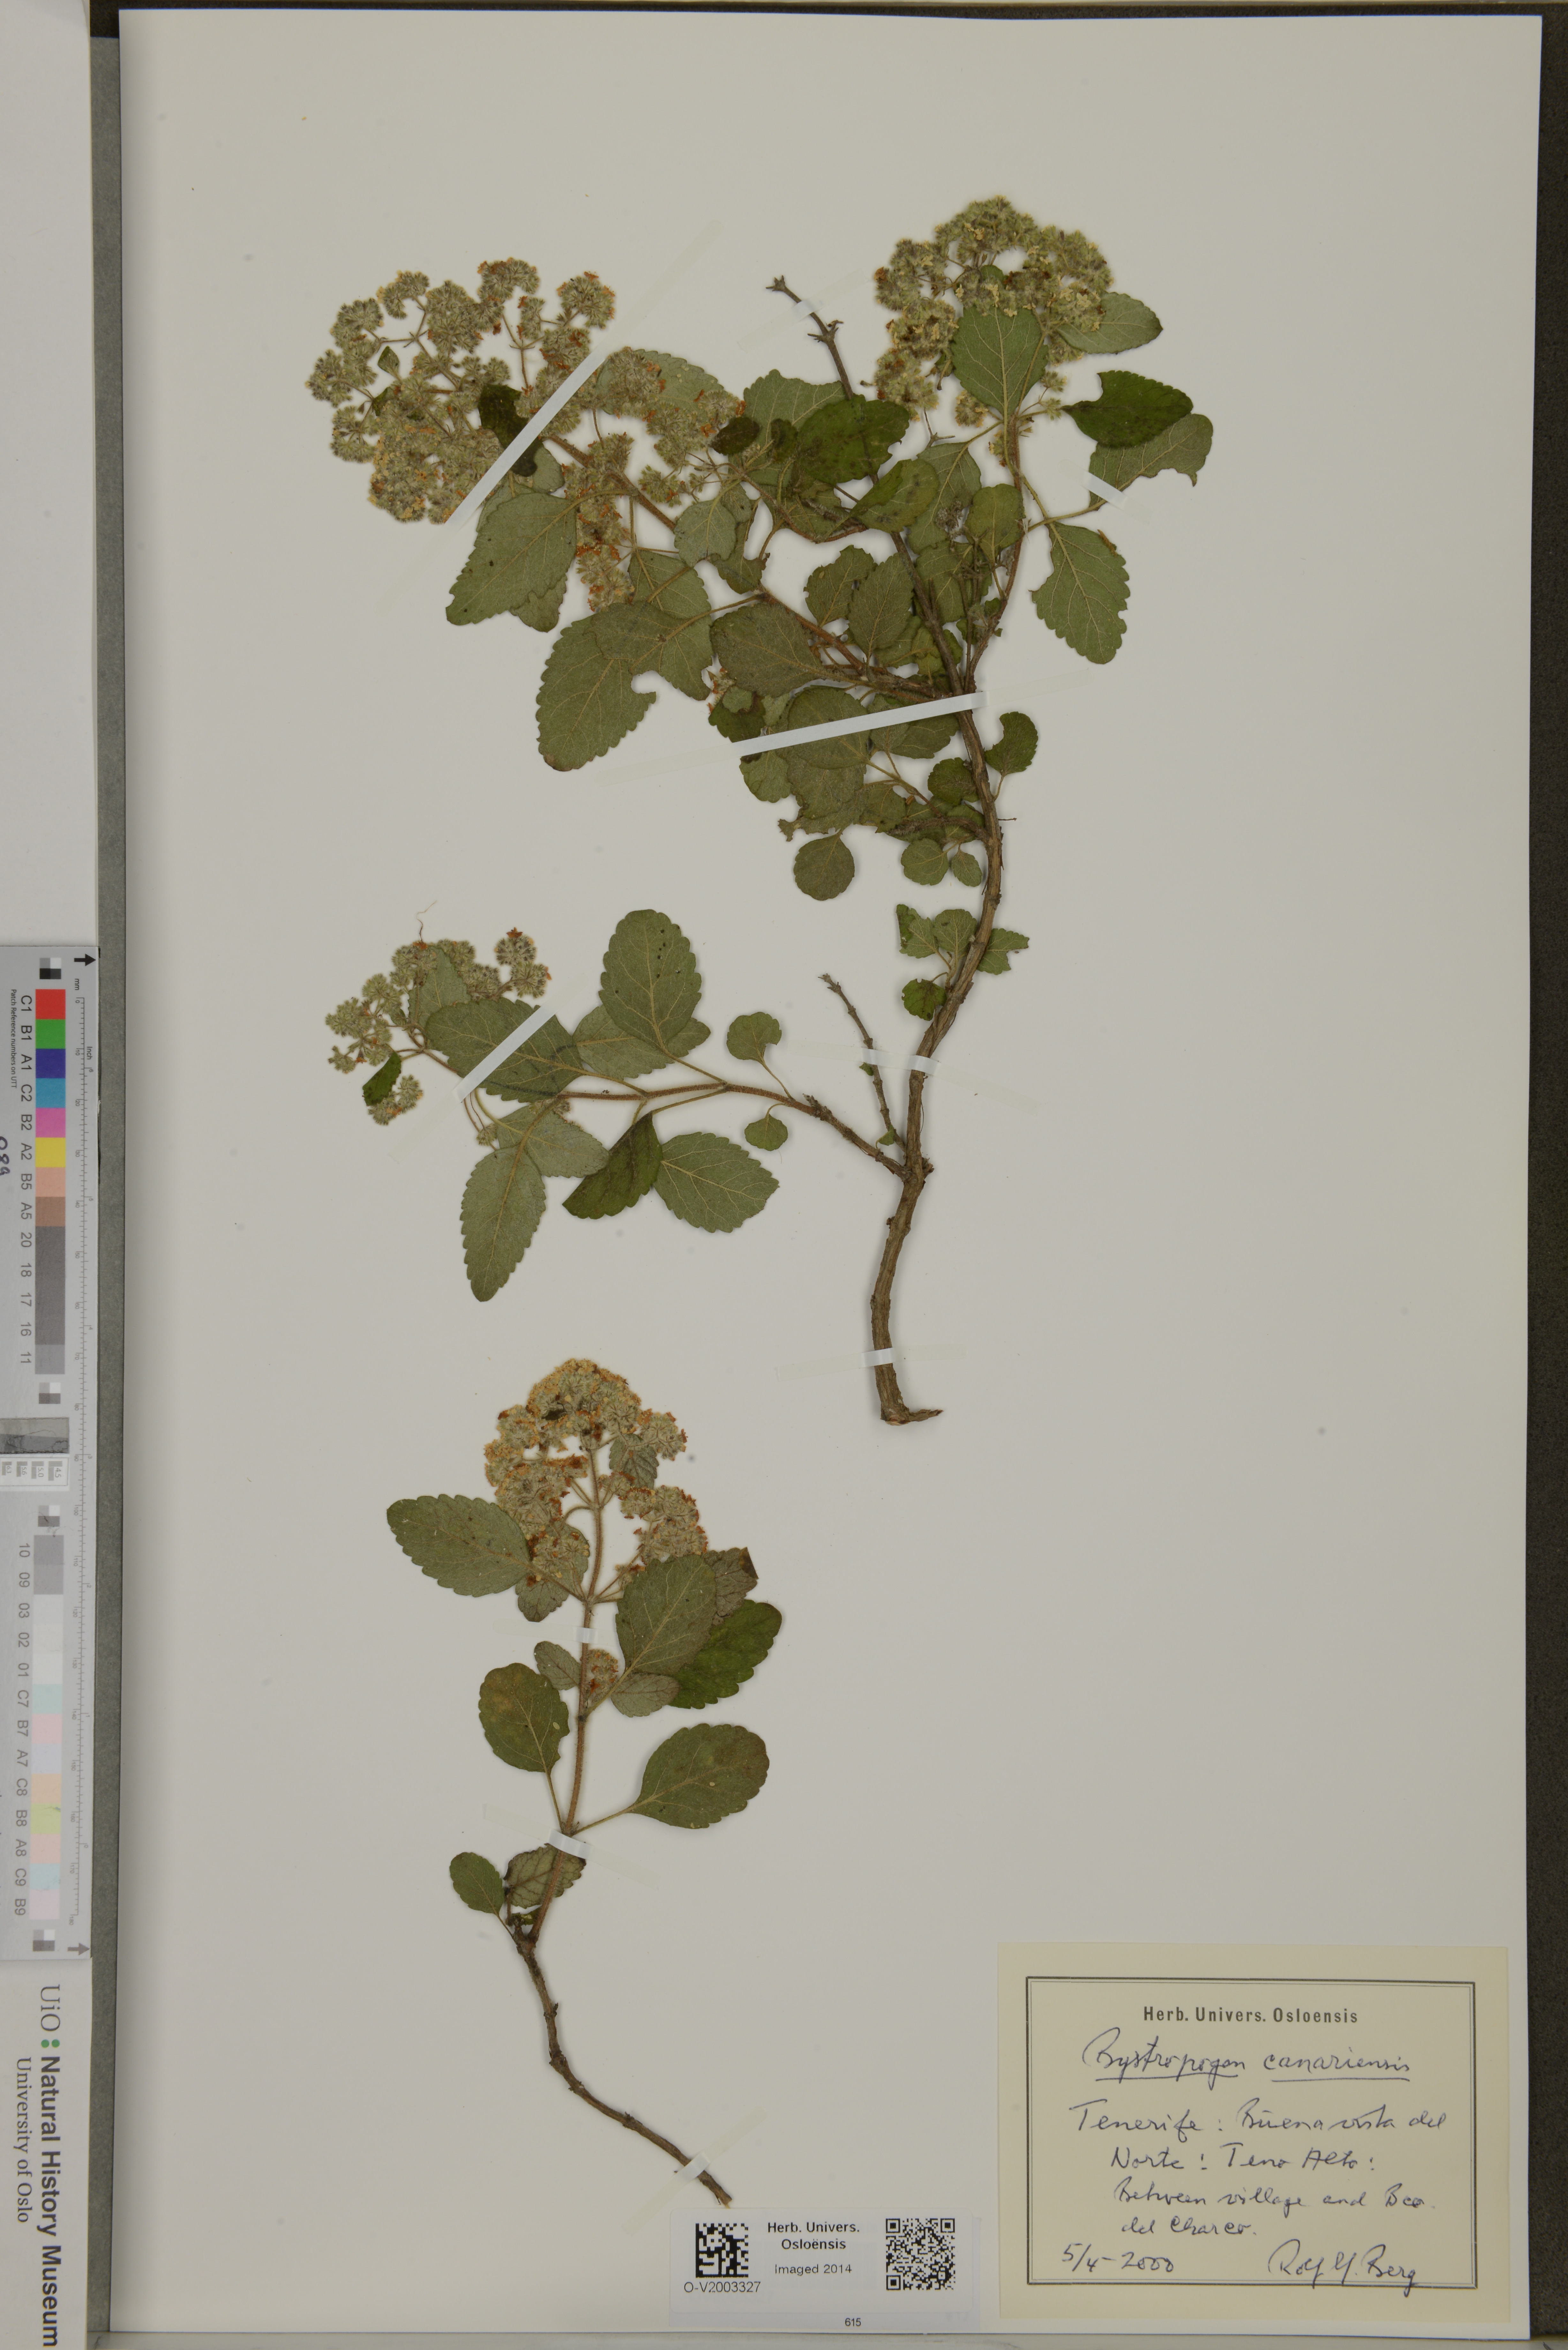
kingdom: Plantae
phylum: Tracheophyta
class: Magnoliopsida
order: Lamiales
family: Lamiaceae
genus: Bystropogon
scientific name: Bystropogon canariense
